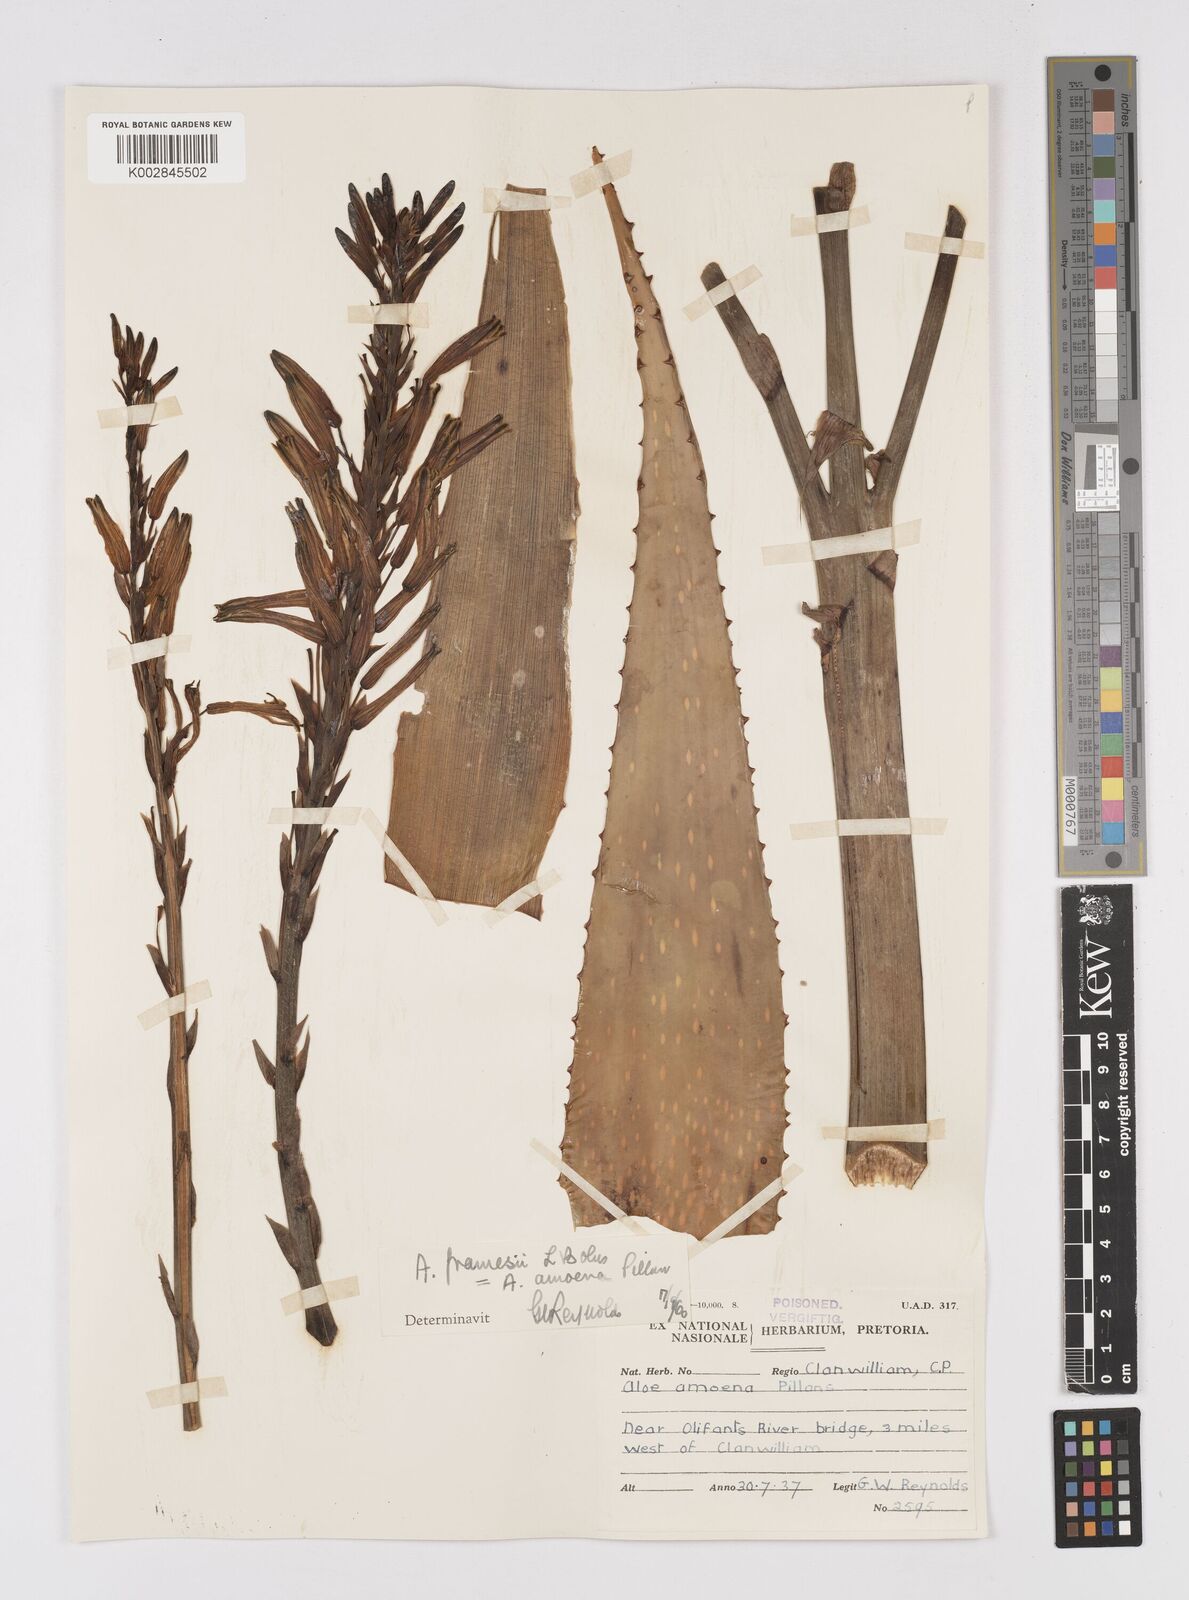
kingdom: Plantae
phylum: Tracheophyta
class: Liliopsida
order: Asparagales
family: Asphodelaceae
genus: Aloe
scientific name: Aloe microstigma
